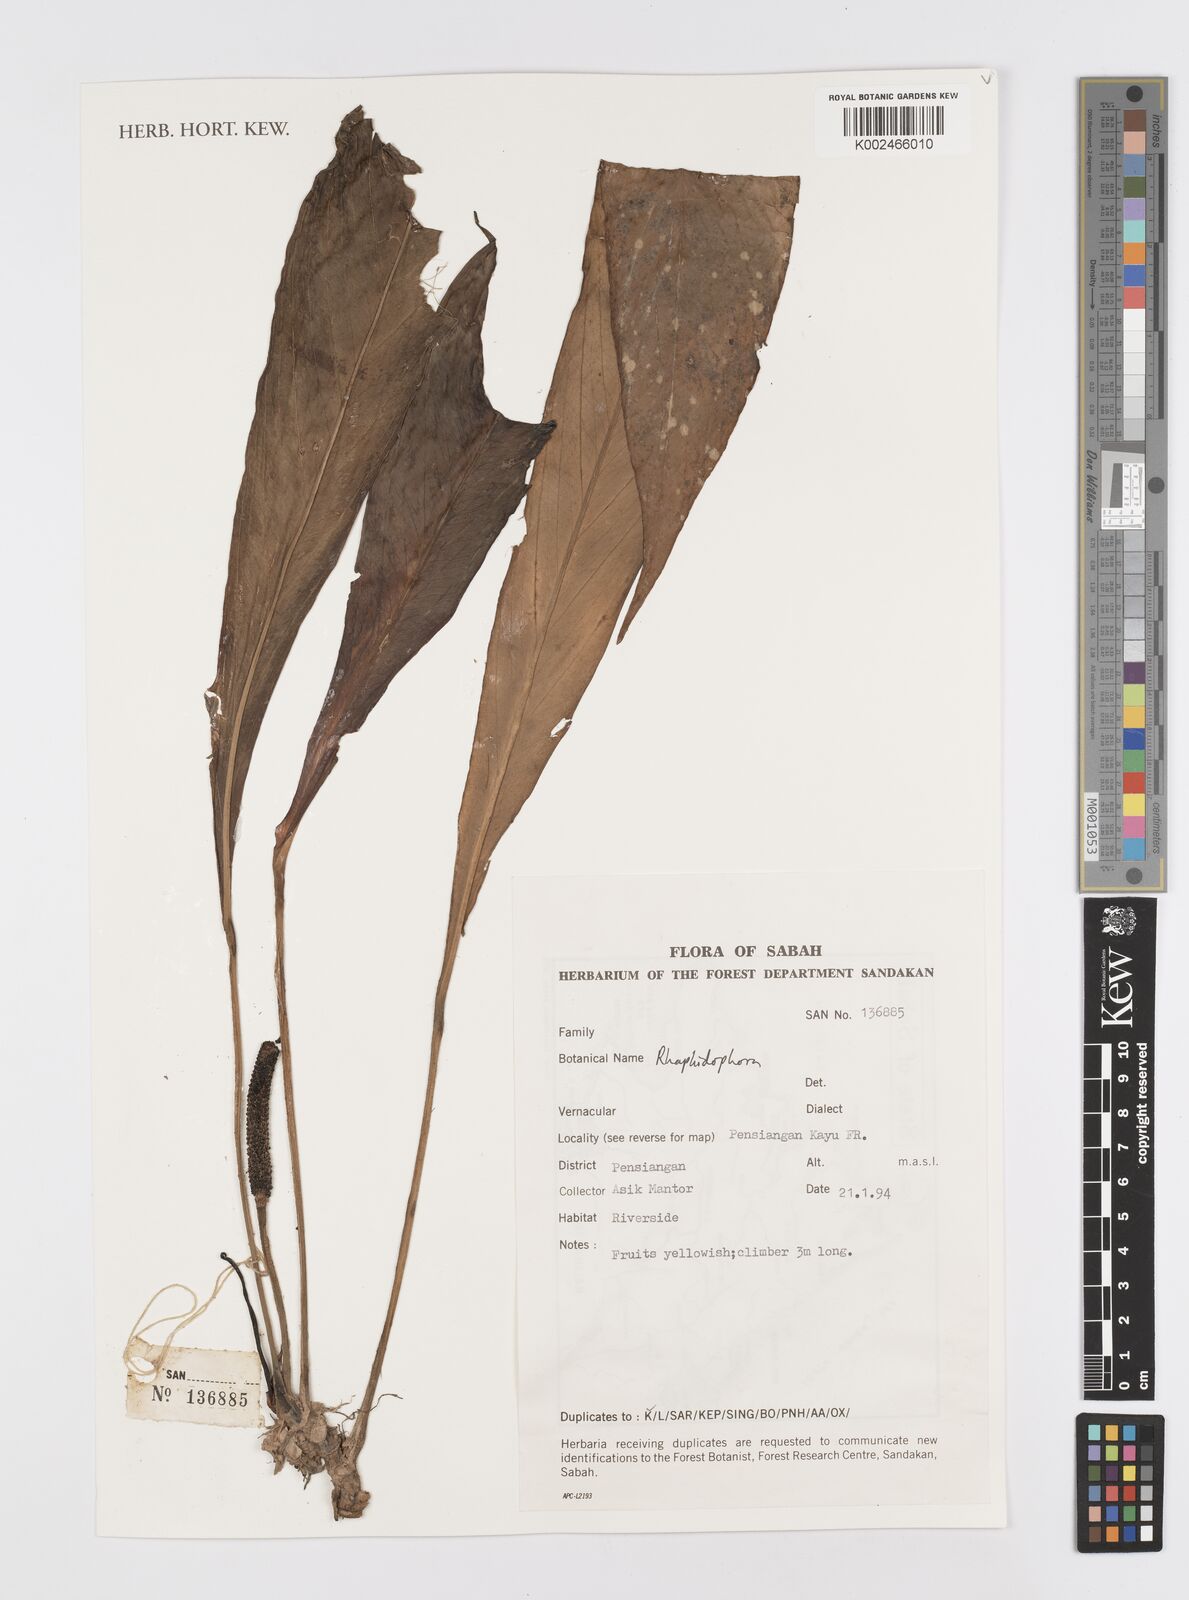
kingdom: Plantae
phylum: Tracheophyta
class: Liliopsida
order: Alismatales
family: Araceae
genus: Rhaphidophora
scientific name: Rhaphidophora
